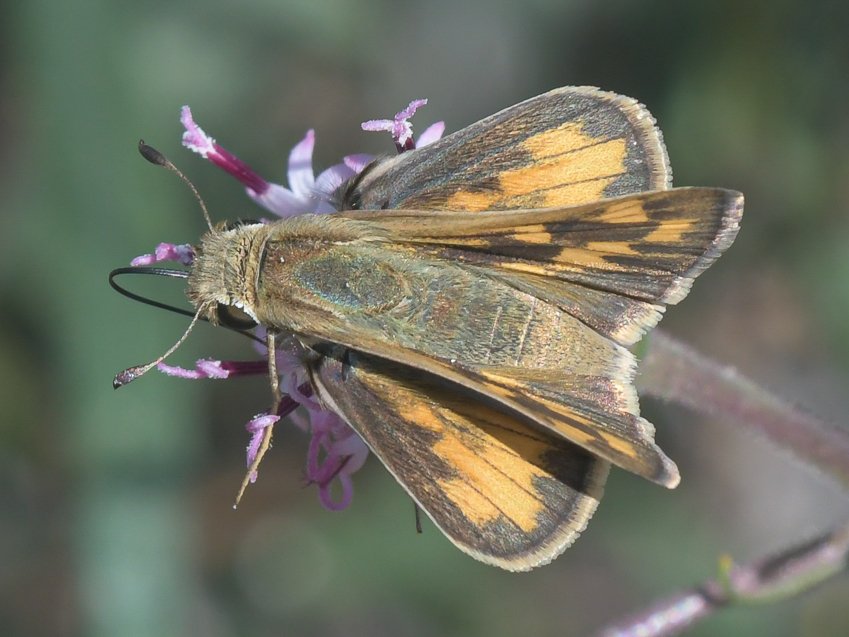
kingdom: Animalia
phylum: Arthropoda
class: Insecta
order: Lepidoptera
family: Hesperiidae
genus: Hylephila
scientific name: Hylephila phyleus
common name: Fiery Skipper
